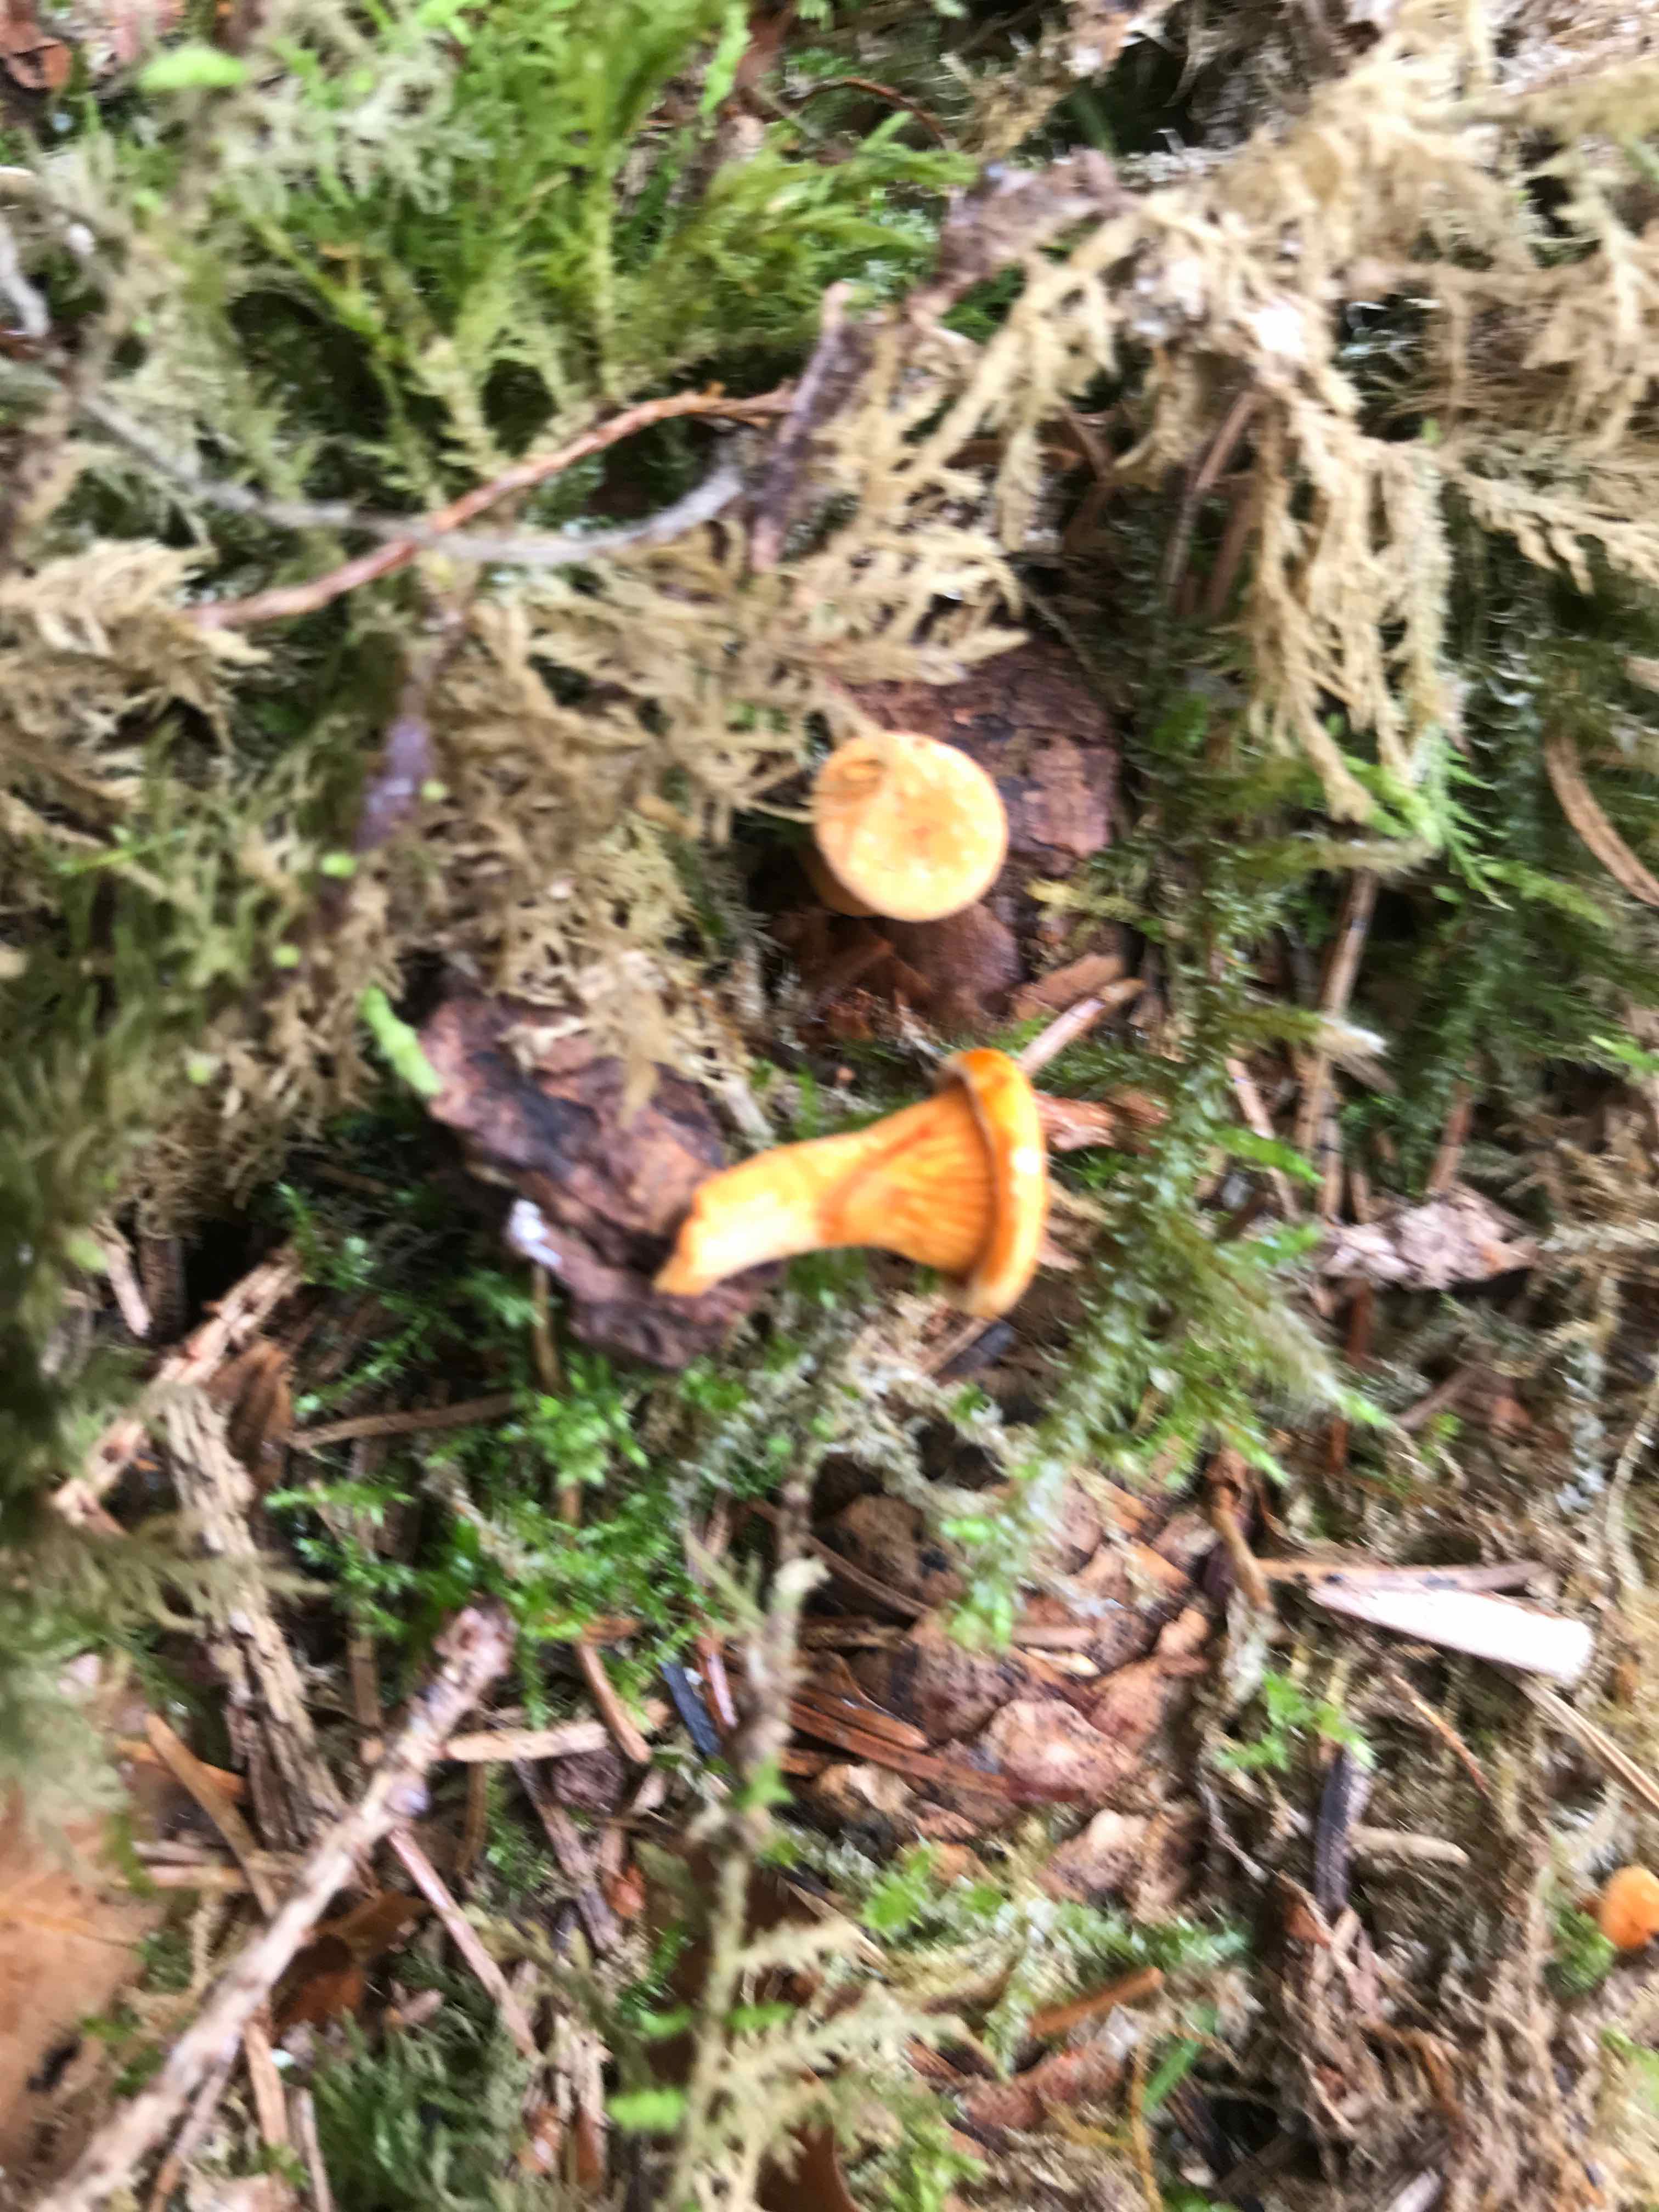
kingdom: Fungi
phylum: Basidiomycota
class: Agaricomycetes
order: Boletales
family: Hygrophoropsidaceae
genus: Hygrophoropsis
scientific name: Hygrophoropsis aurantiaca
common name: almindelig orangekantarel
